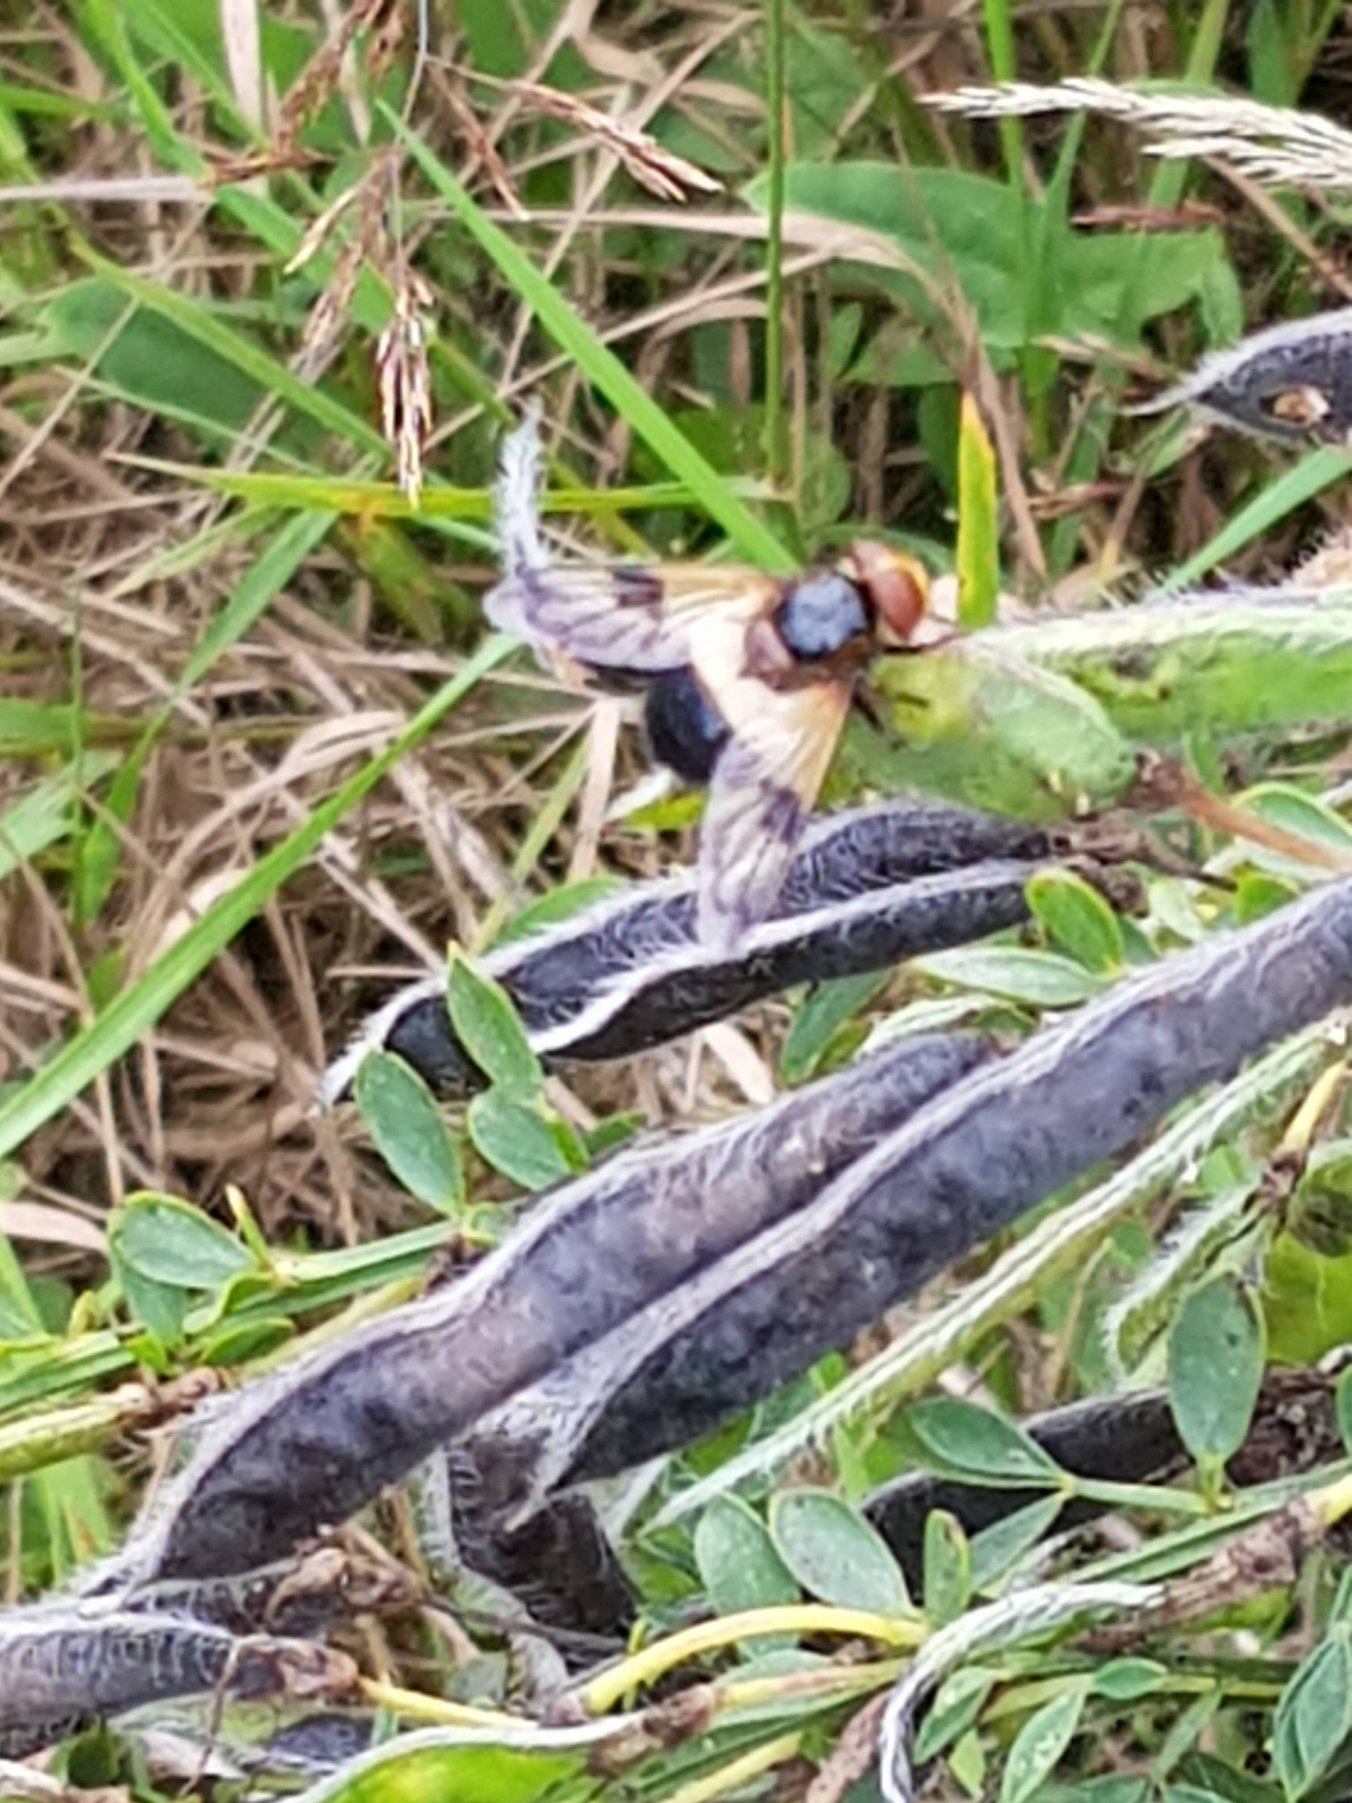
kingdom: Animalia
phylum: Arthropoda
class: Insecta
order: Diptera
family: Syrphidae
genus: Volucella
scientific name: Volucella pellucens
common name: Hvidbåndet humlesvirreflue
